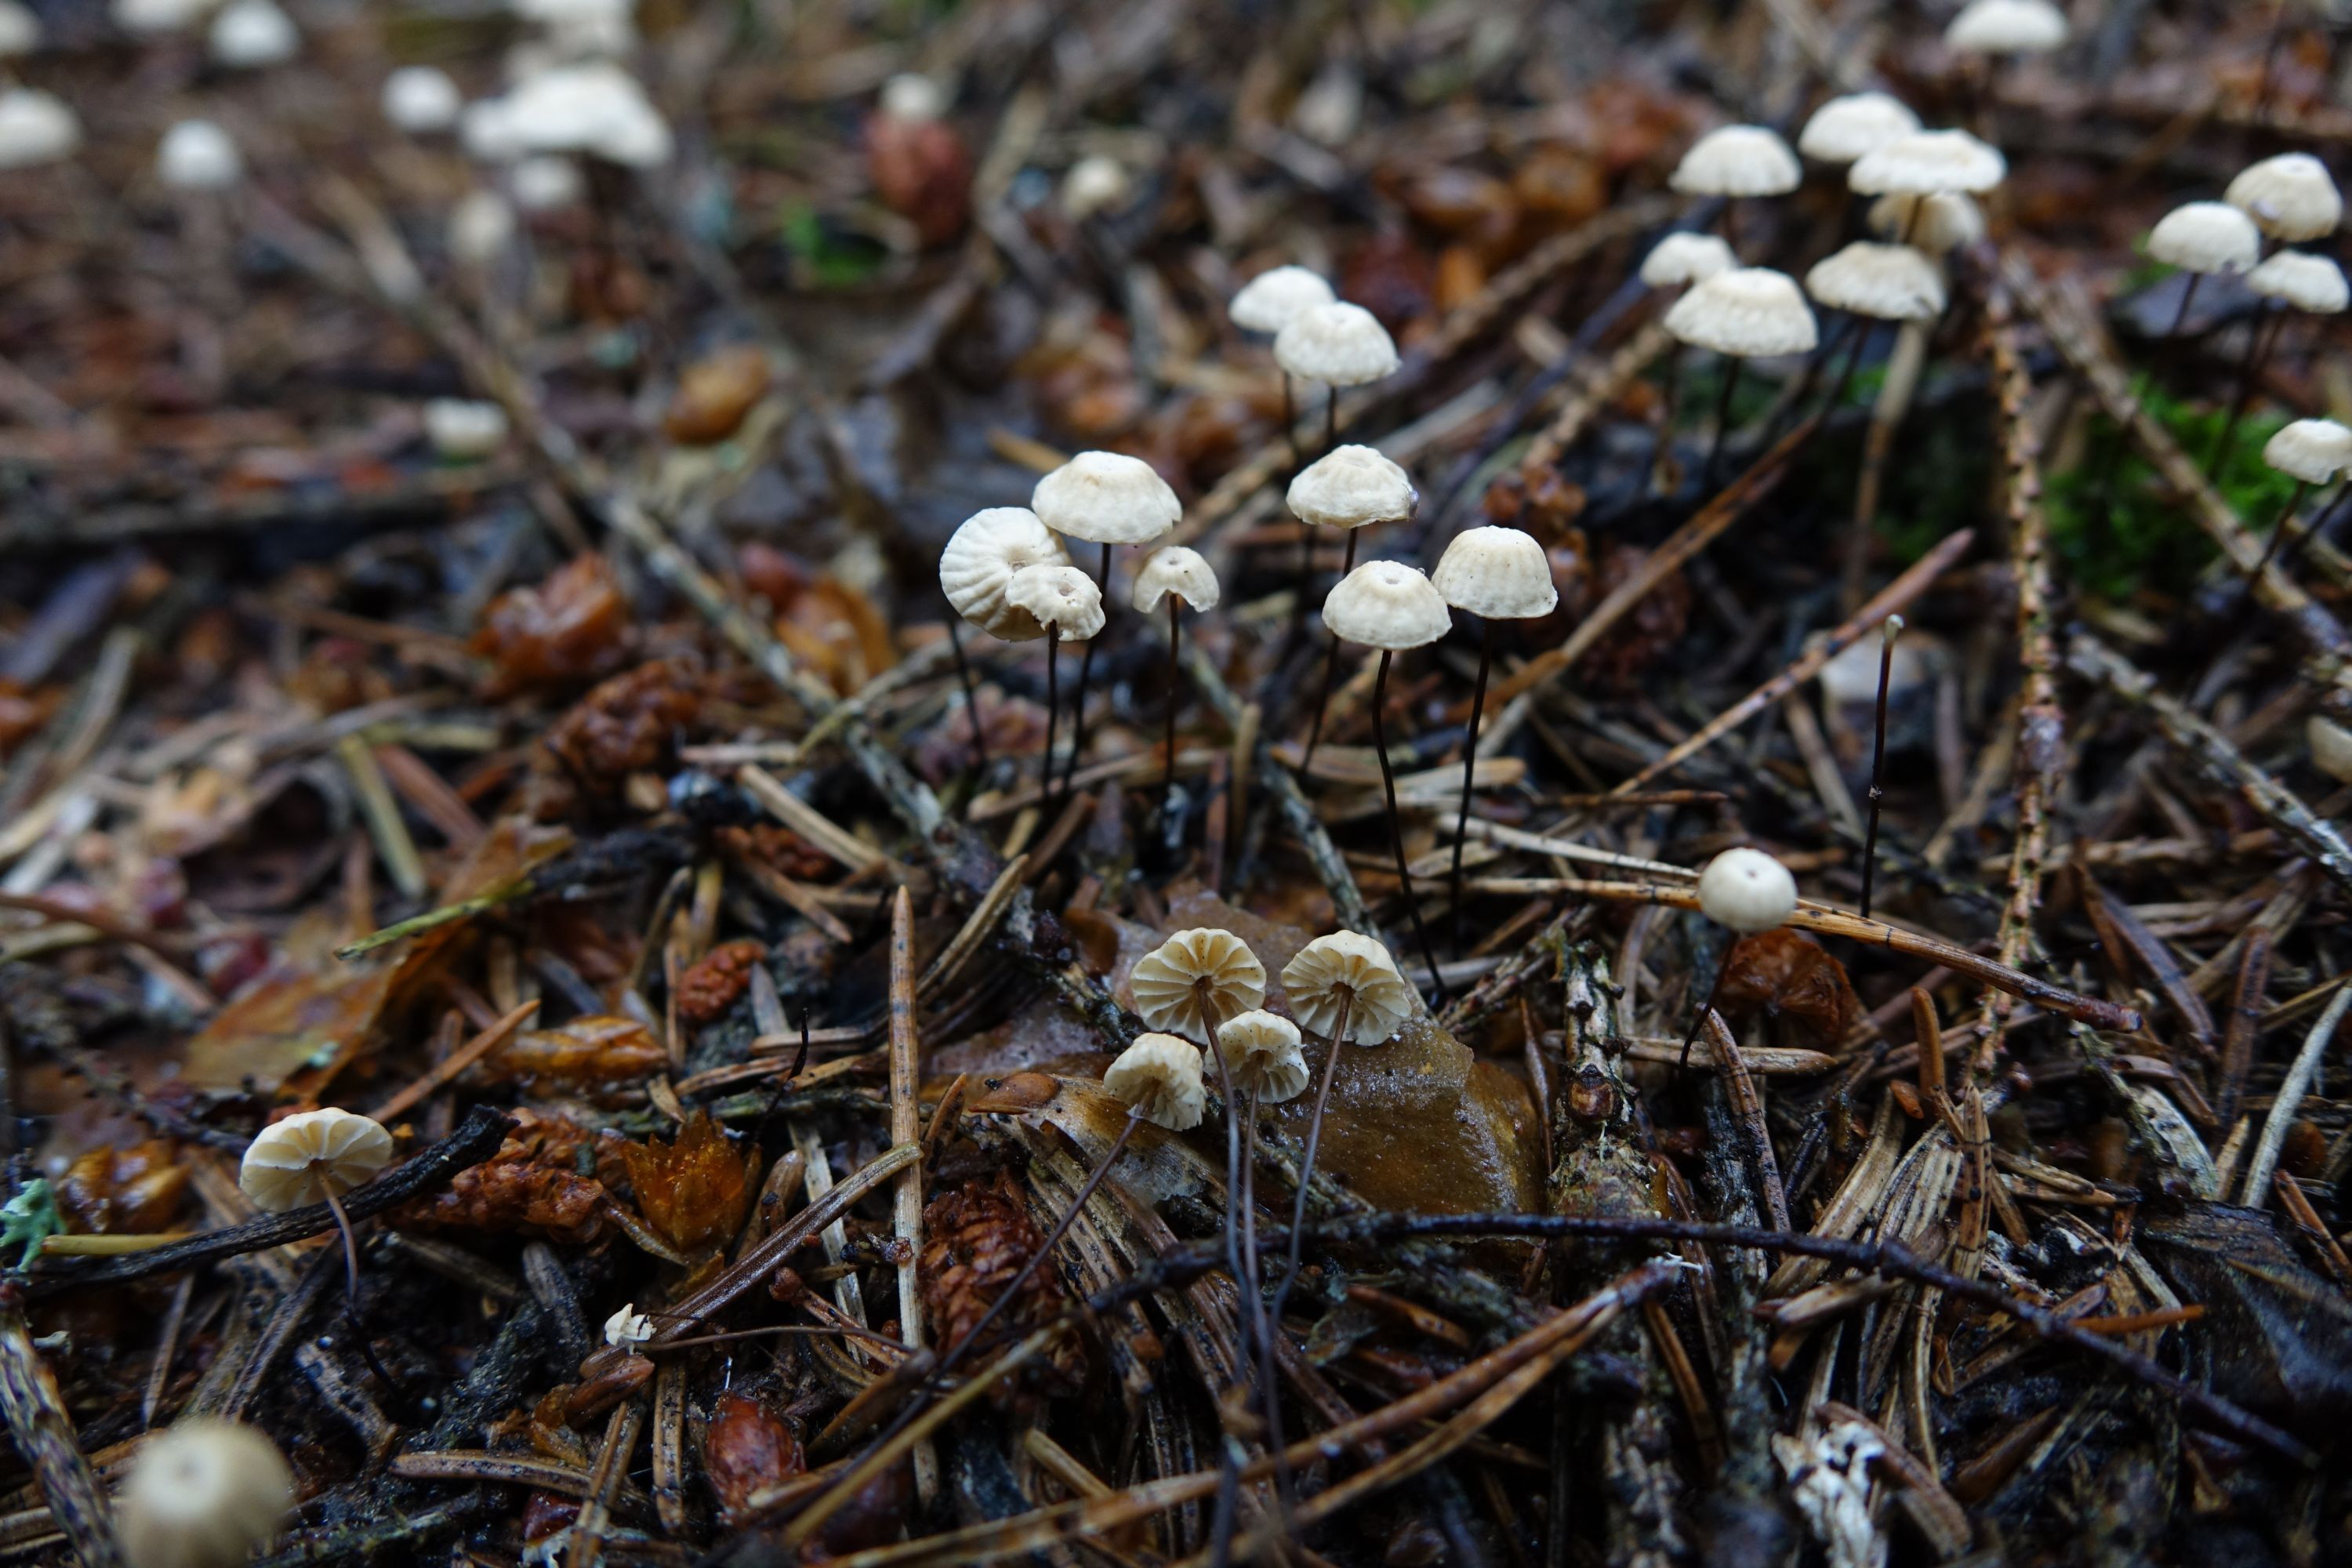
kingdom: Fungi
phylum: Basidiomycota
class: Agaricomycetes
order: Agaricales
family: Marasmiaceae
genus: Marasmius
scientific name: Marasmius wettsteinii
